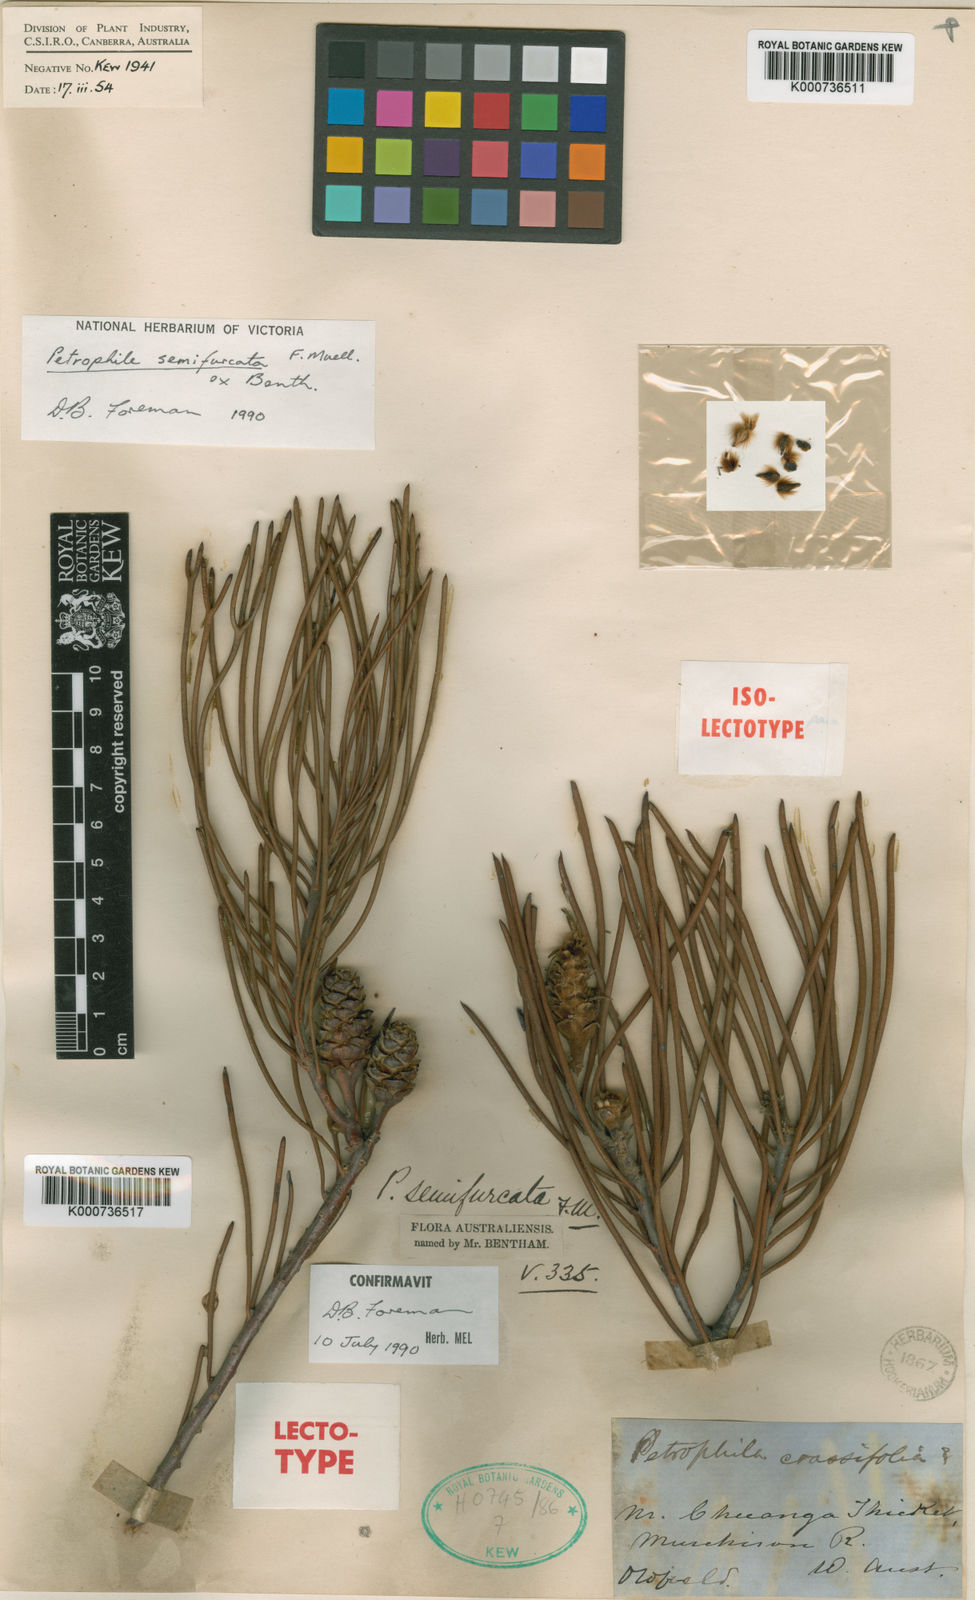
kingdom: Plantae
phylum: Tracheophyta
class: Magnoliopsida
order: Proteales
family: Proteaceae
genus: Petrophile
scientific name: Petrophile semifurcata
